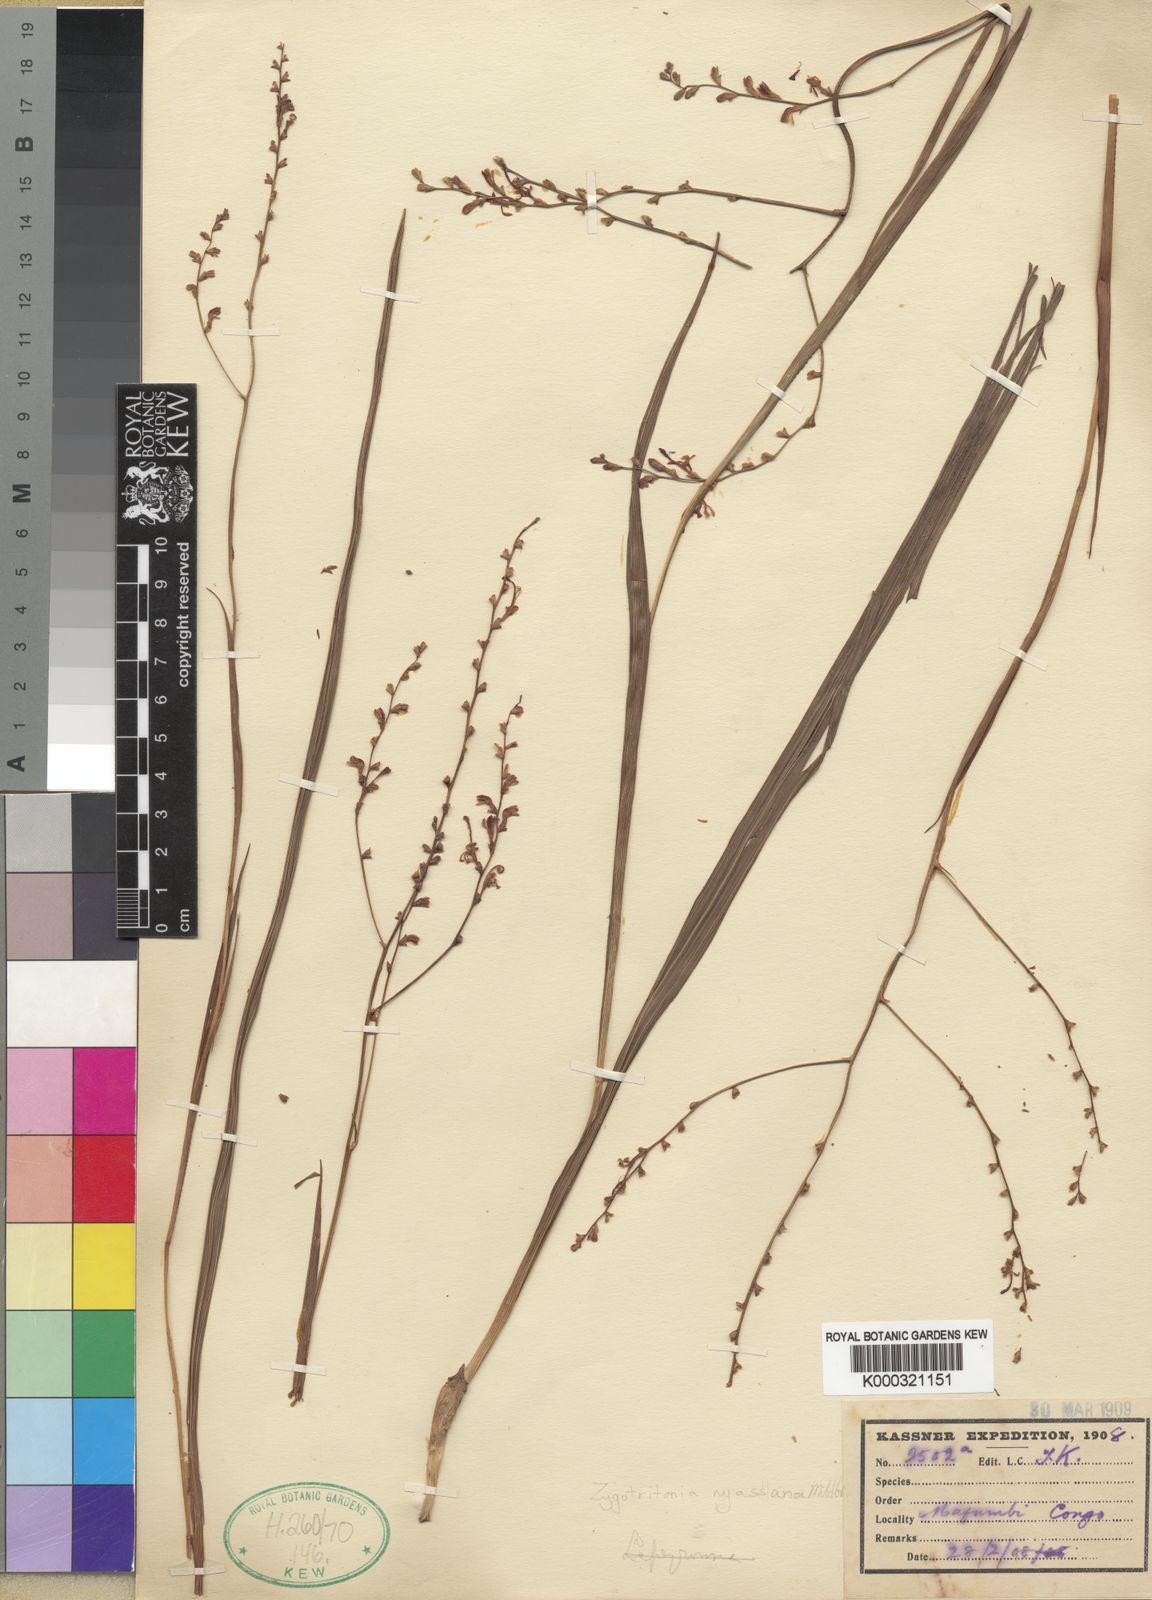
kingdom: Plantae
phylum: Tracheophyta
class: Liliopsida
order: Asparagales
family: Iridaceae
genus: Zygotritonia
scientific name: Zygotritonia nyassana
